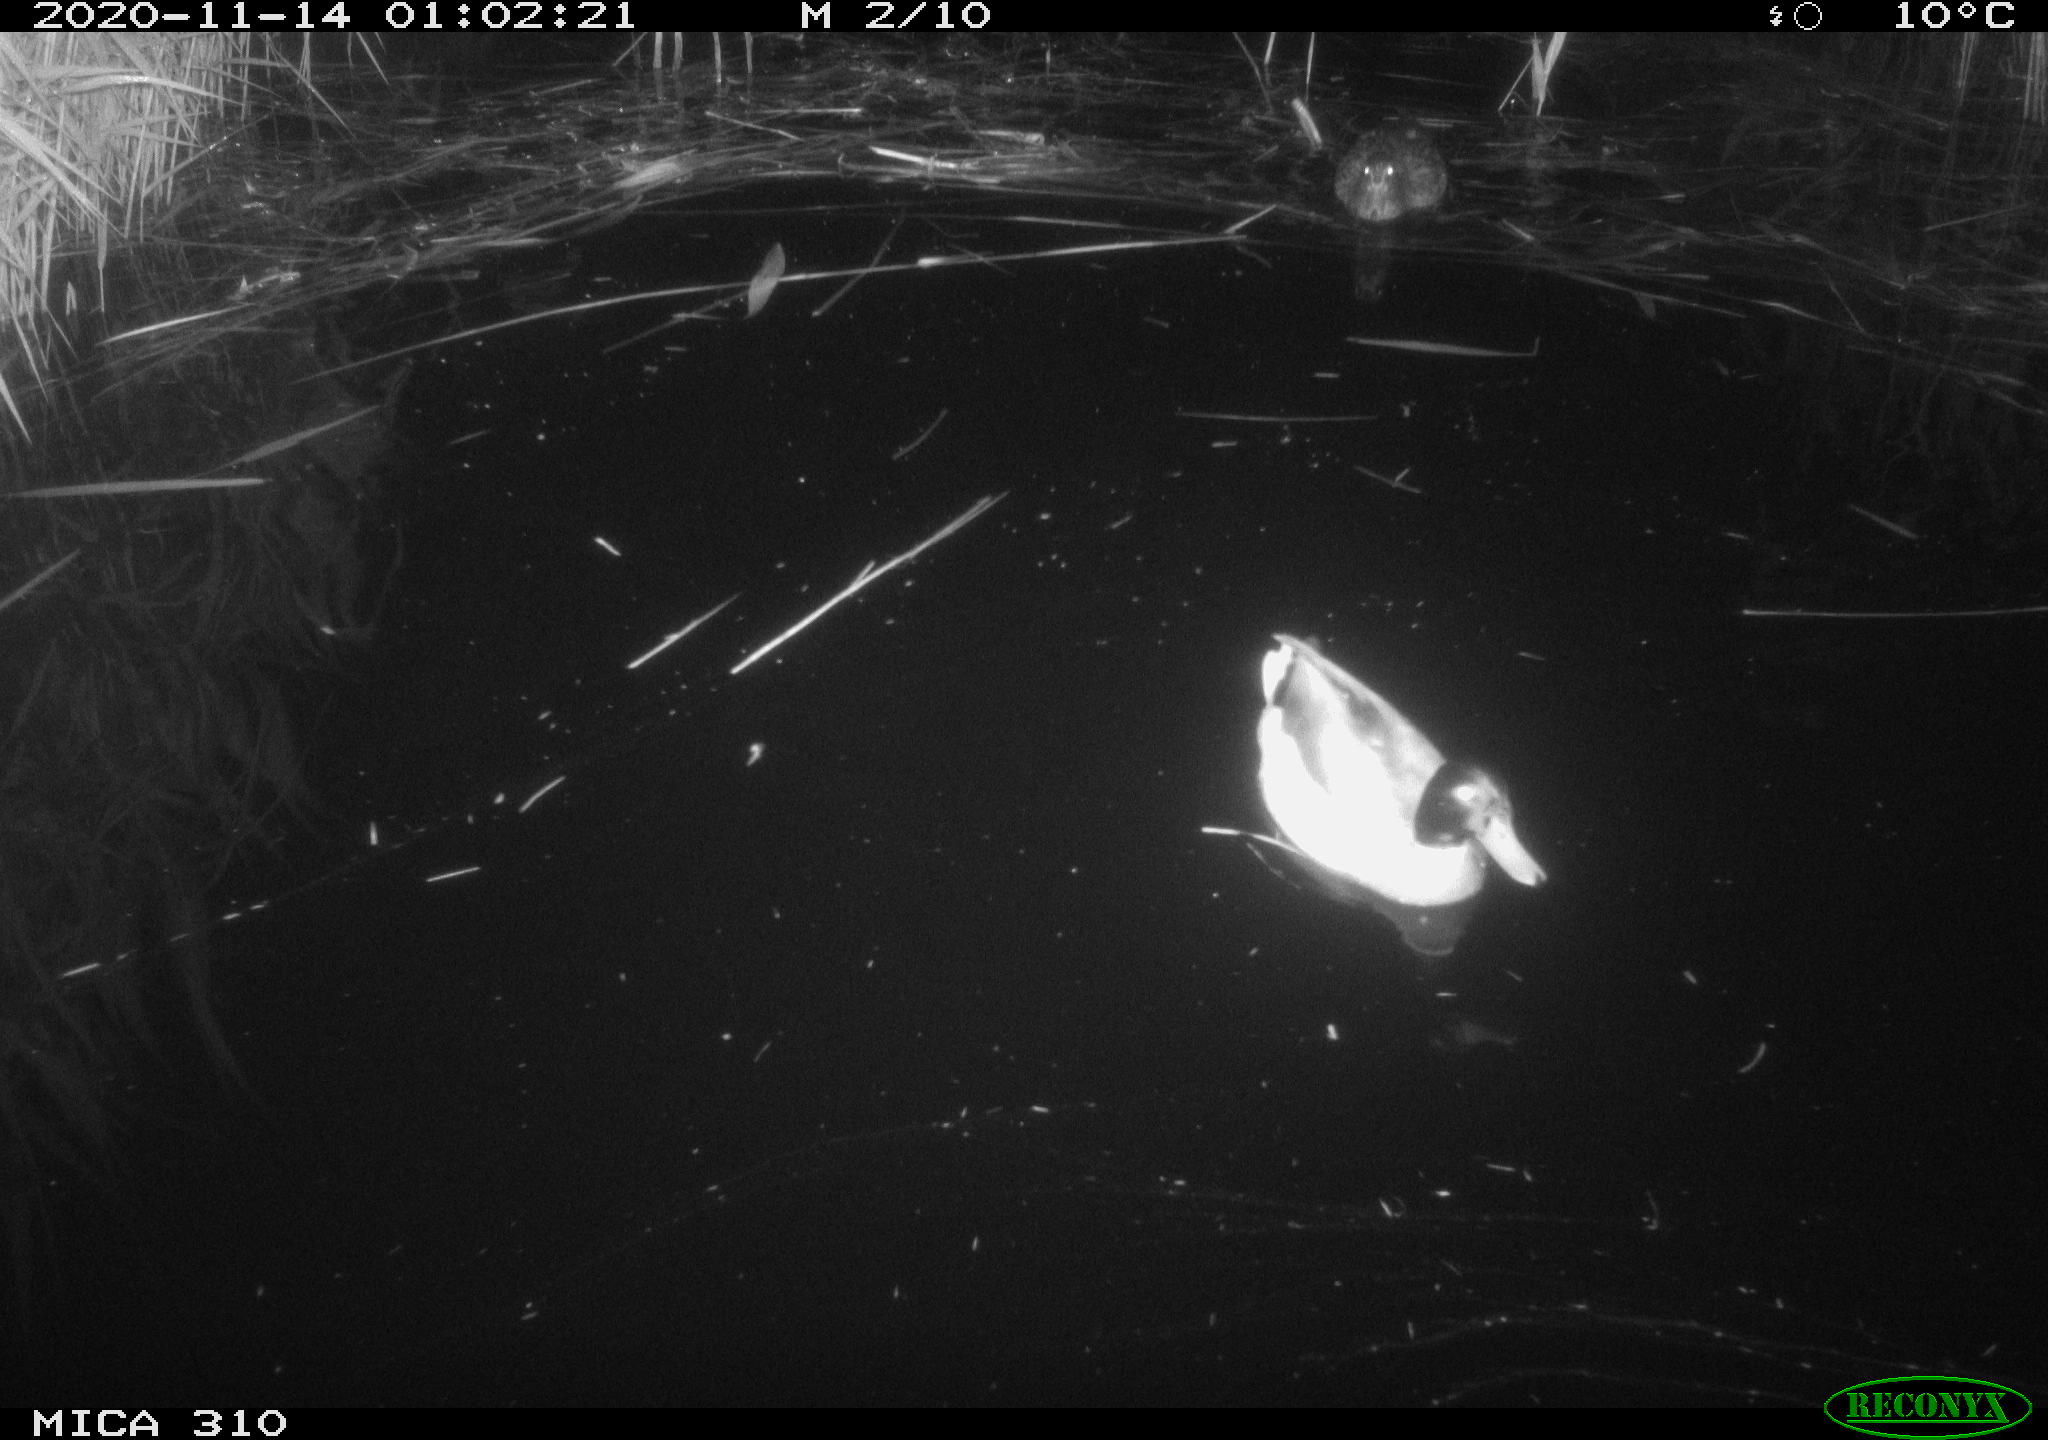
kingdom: Animalia
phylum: Chordata
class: Aves
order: Anseriformes
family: Anatidae
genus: Anas
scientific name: Anas platyrhynchos
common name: Mallard
